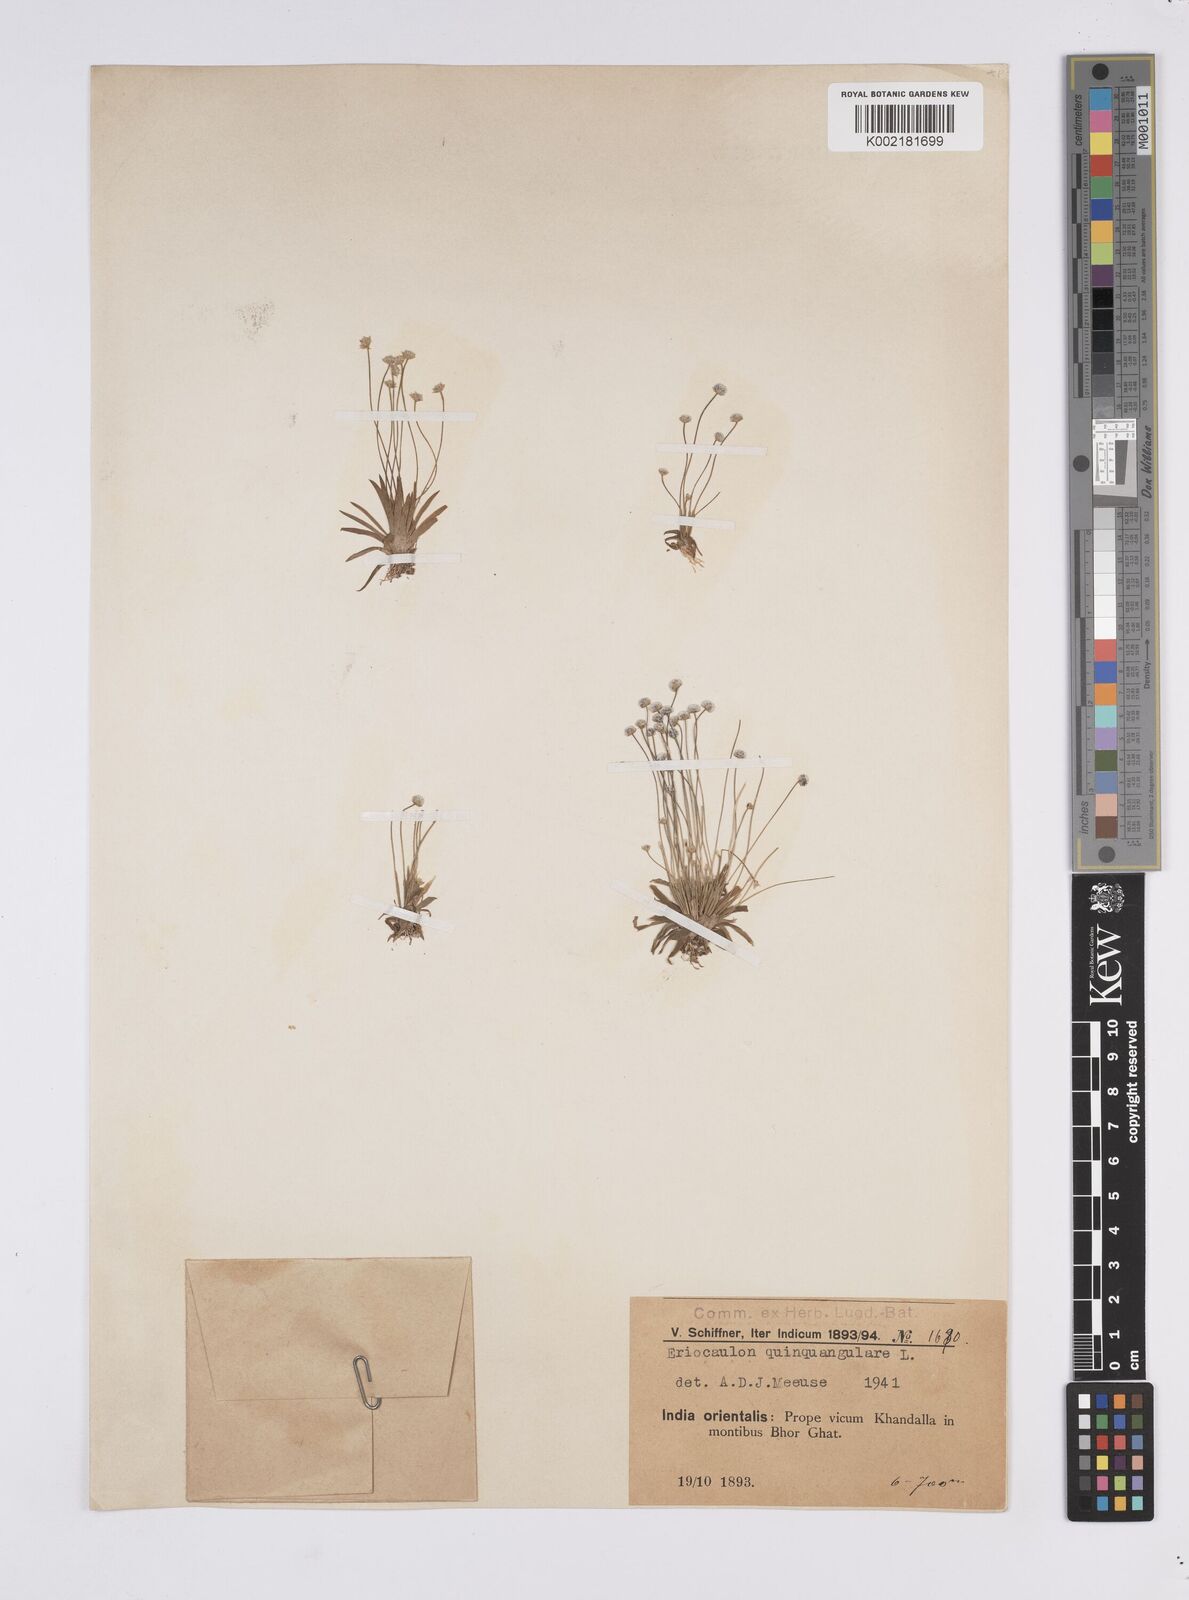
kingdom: Plantae
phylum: Tracheophyta
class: Liliopsida
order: Poales
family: Eriocaulaceae
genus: Eriocaulon
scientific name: Eriocaulon quinquangulare
